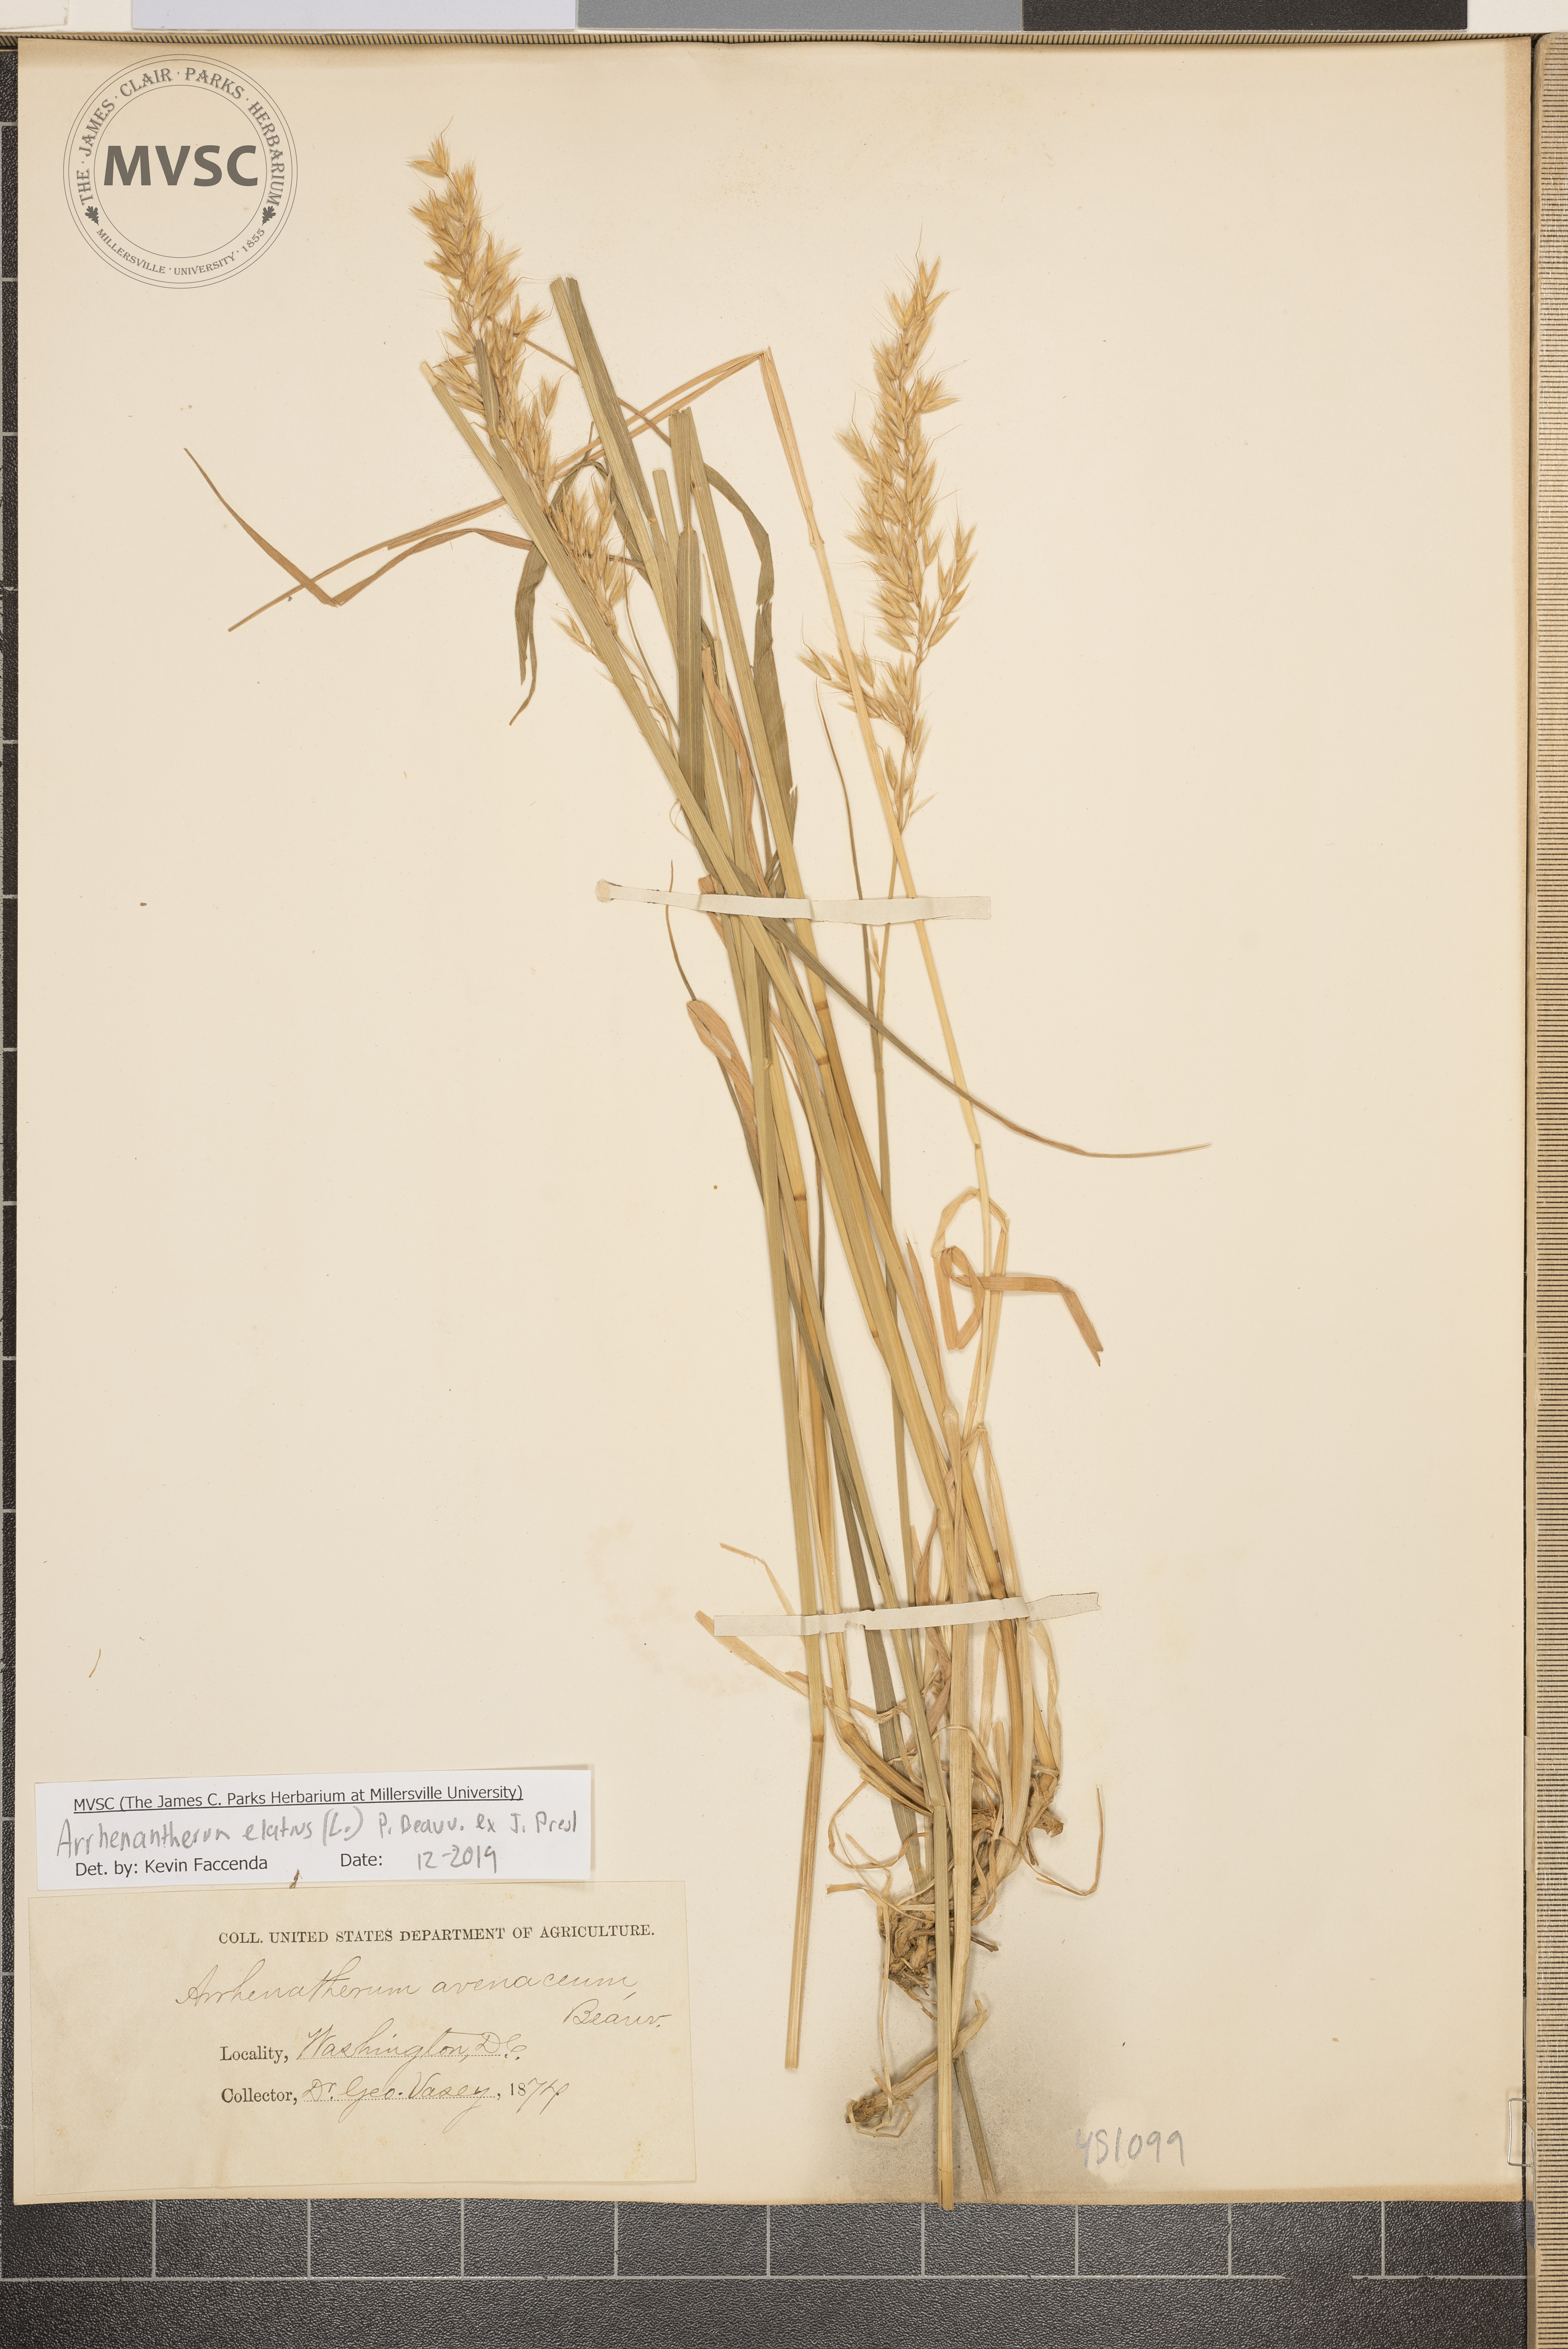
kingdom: Plantae
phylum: Tracheophyta
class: Liliopsida
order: Poales
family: Poaceae
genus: Arrhenatherum
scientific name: Arrhenatherum elatius
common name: Tall oatgrass
